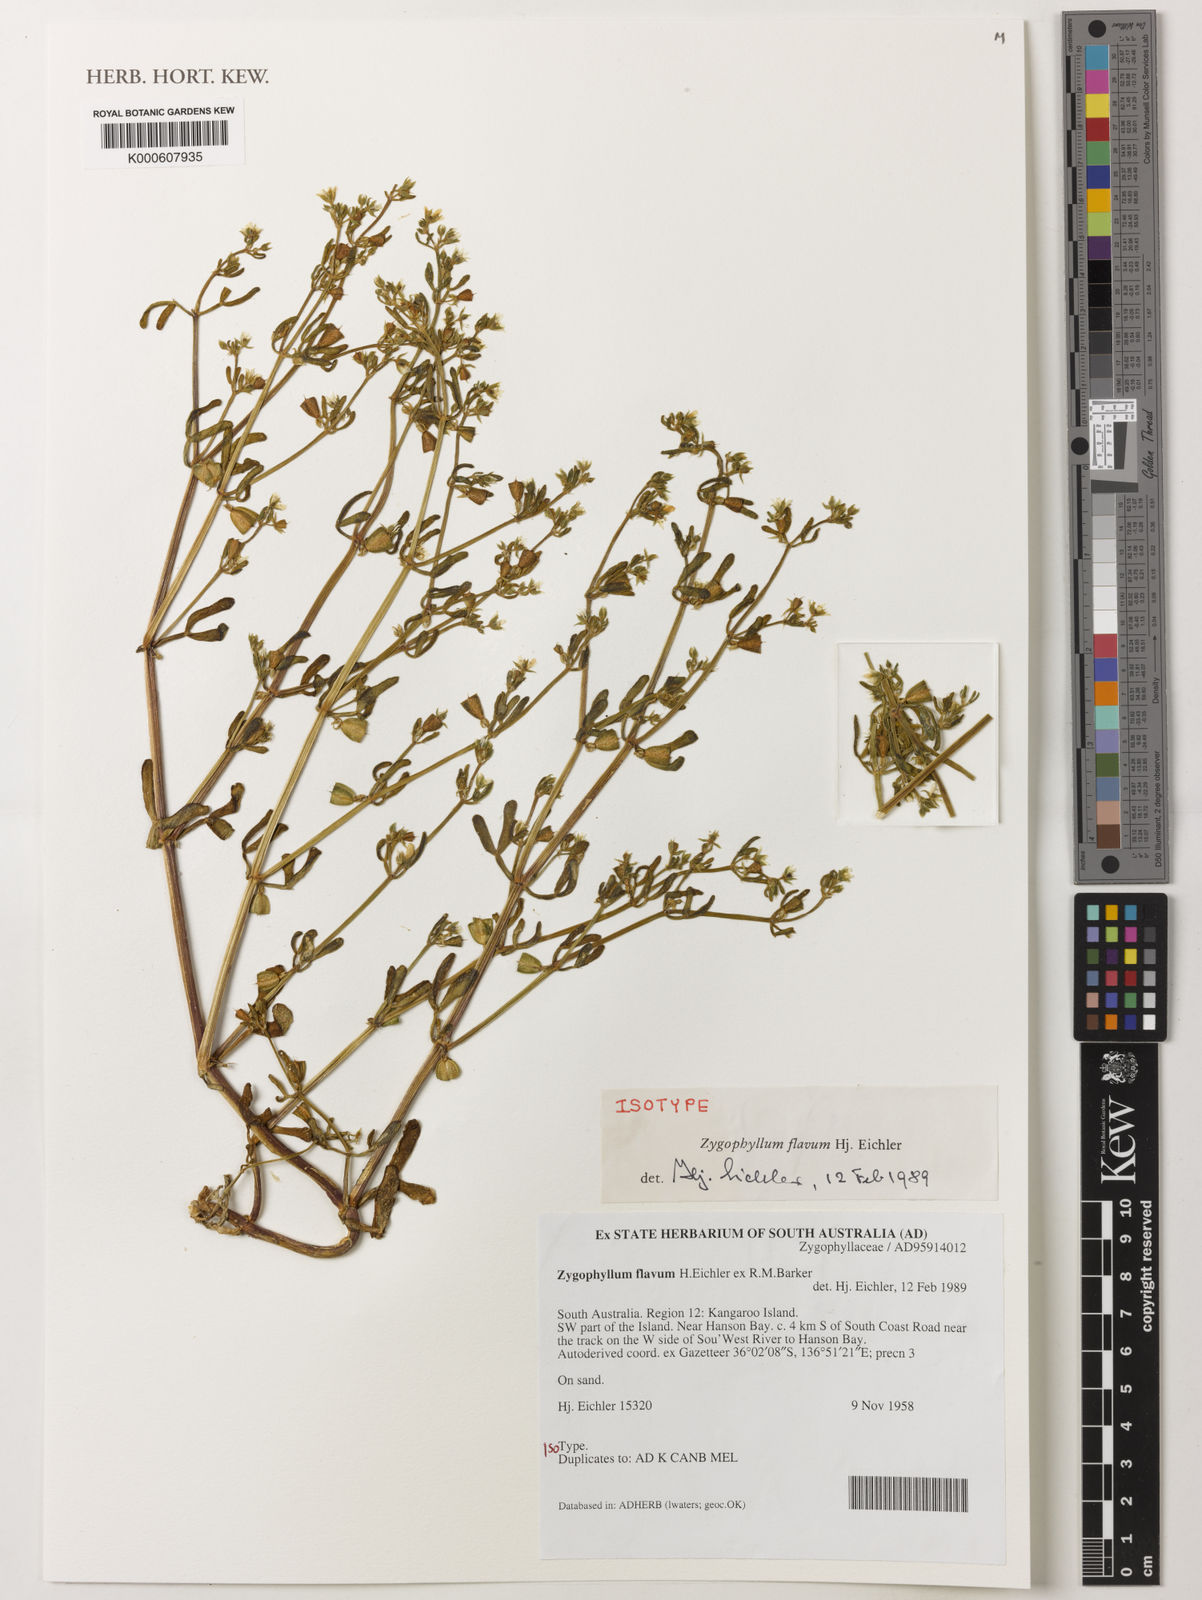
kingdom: Plantae
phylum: Tracheophyta
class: Magnoliopsida
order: Zygophyllales
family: Zygophyllaceae
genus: Roepera
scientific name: Roepera flava
